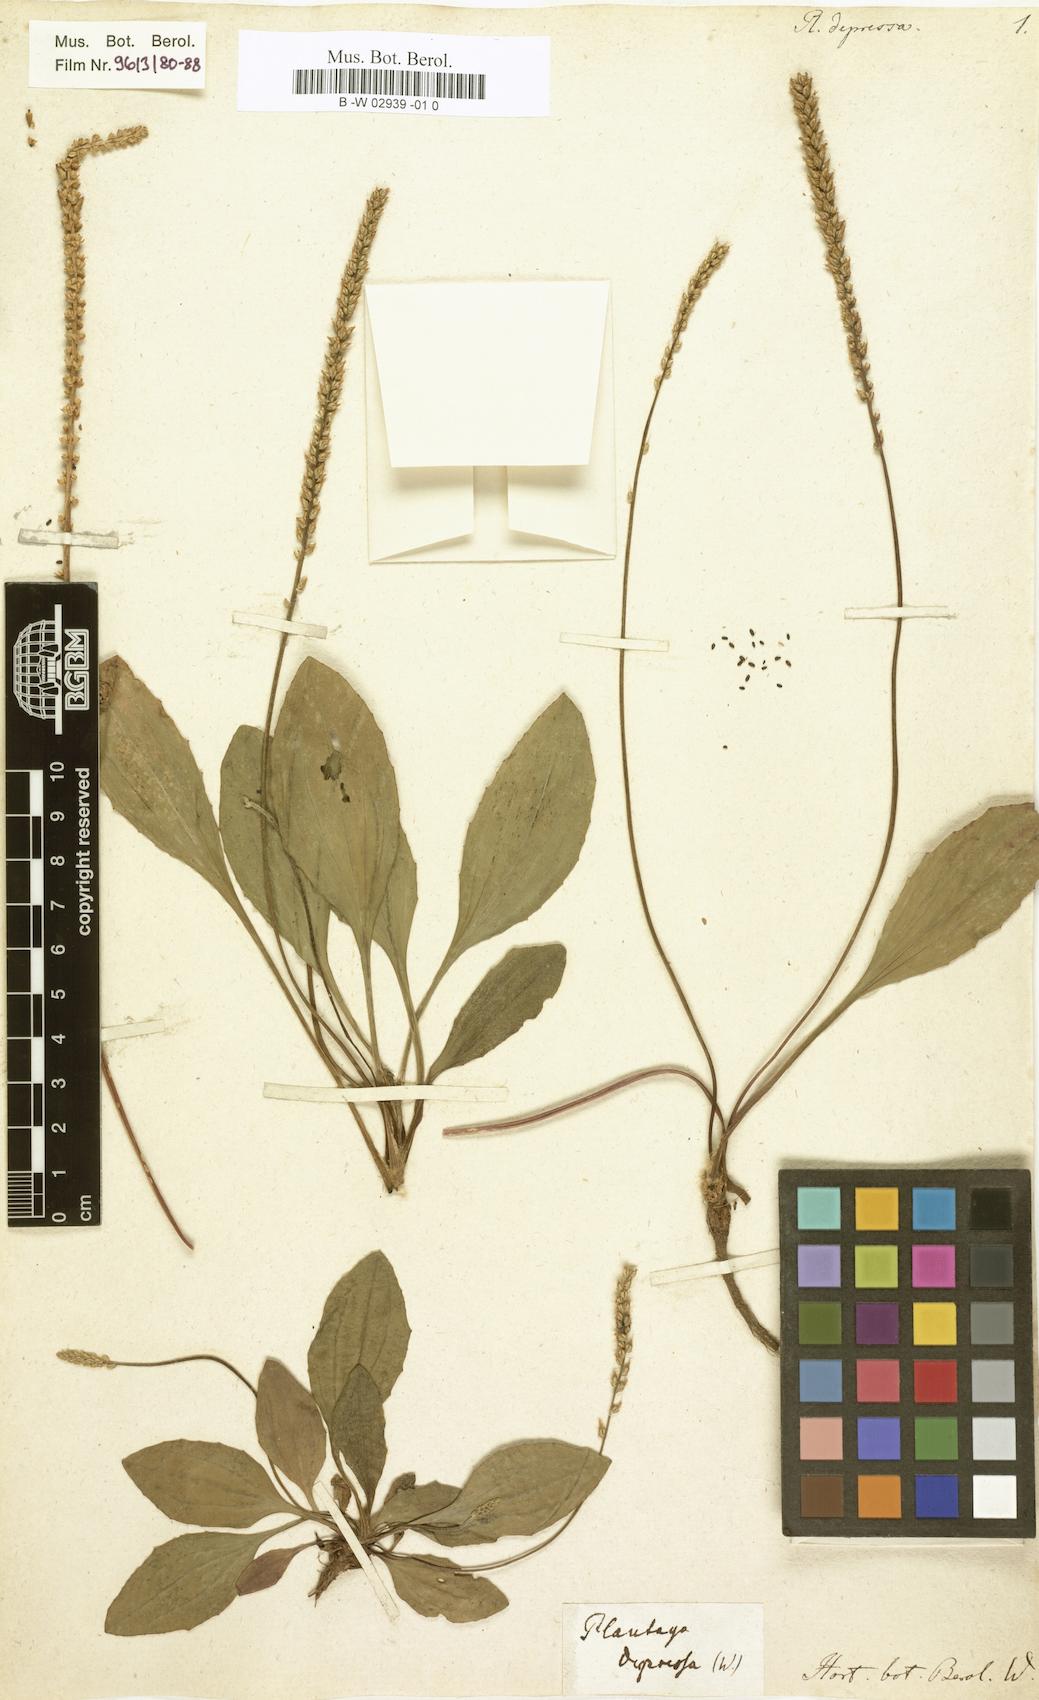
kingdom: Plantae
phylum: Tracheophyta
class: Magnoliopsida
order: Lamiales
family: Plantaginaceae
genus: Plantago
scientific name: Plantago depressa
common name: Depressed plantain
